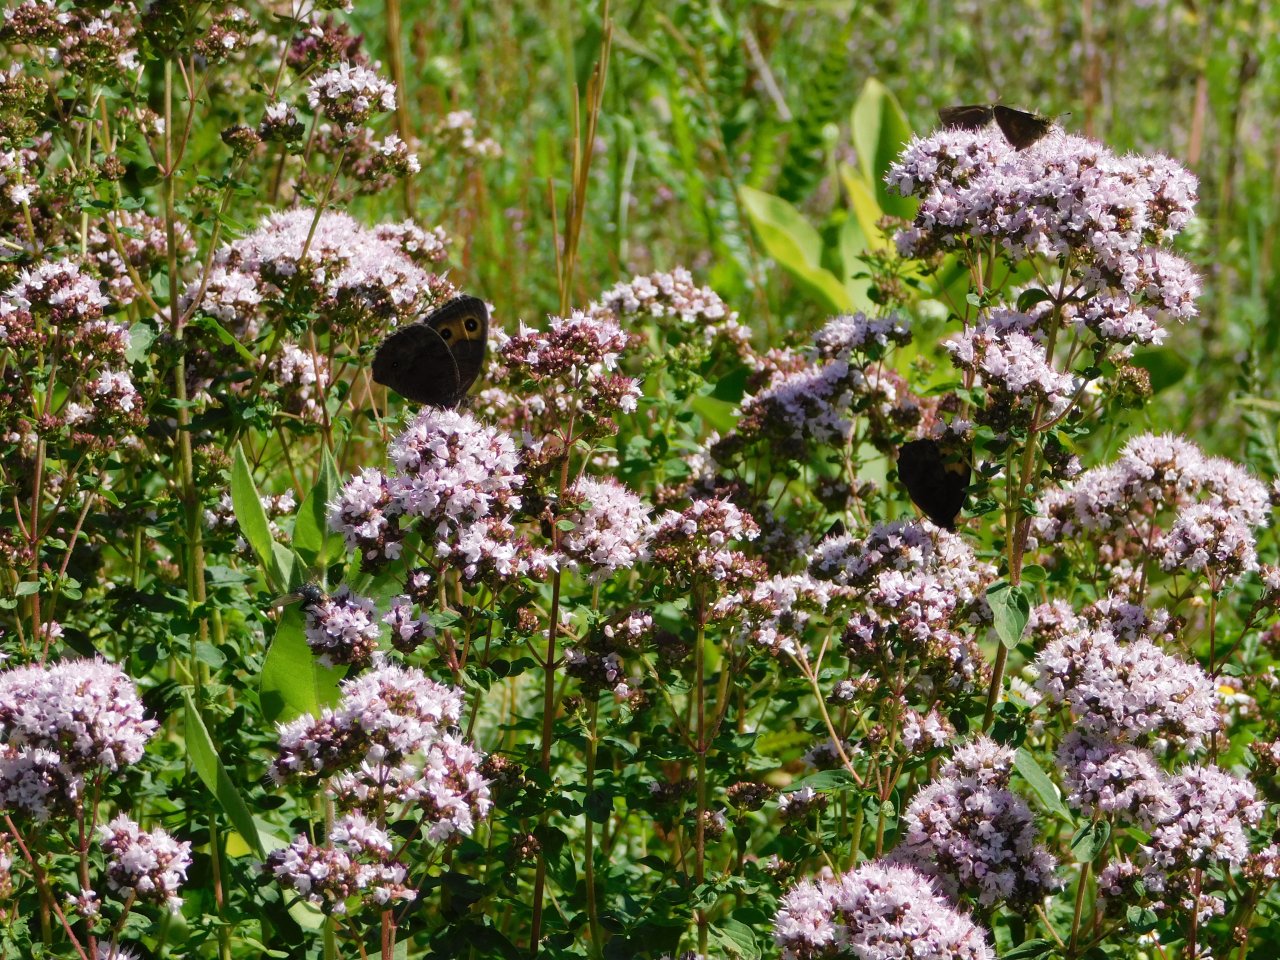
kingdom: Animalia
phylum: Arthropoda
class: Insecta
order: Lepidoptera
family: Nymphalidae
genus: Cercyonis
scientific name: Cercyonis pegala
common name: Common Wood-Nymph
